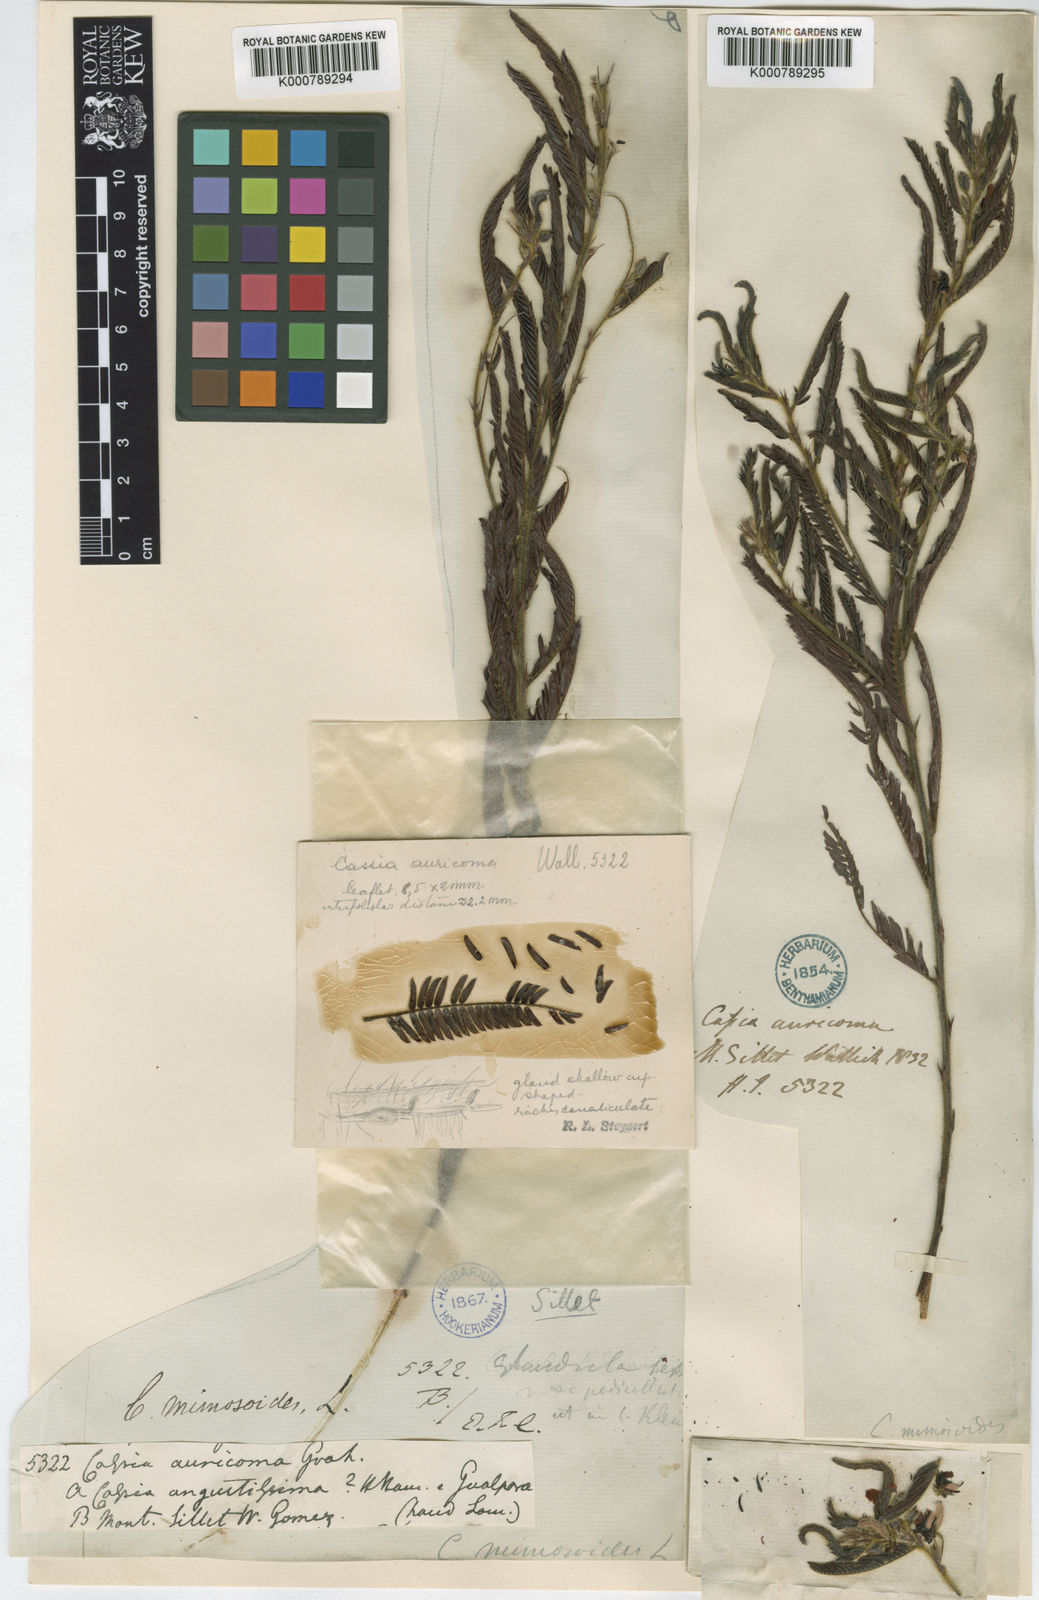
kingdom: Plantae
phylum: Tracheophyta
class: Magnoliopsida
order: Fabales
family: Fabaceae
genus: Chamaecrista
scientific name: Chamaecrista mimosoides
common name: Fish-bone cassia
